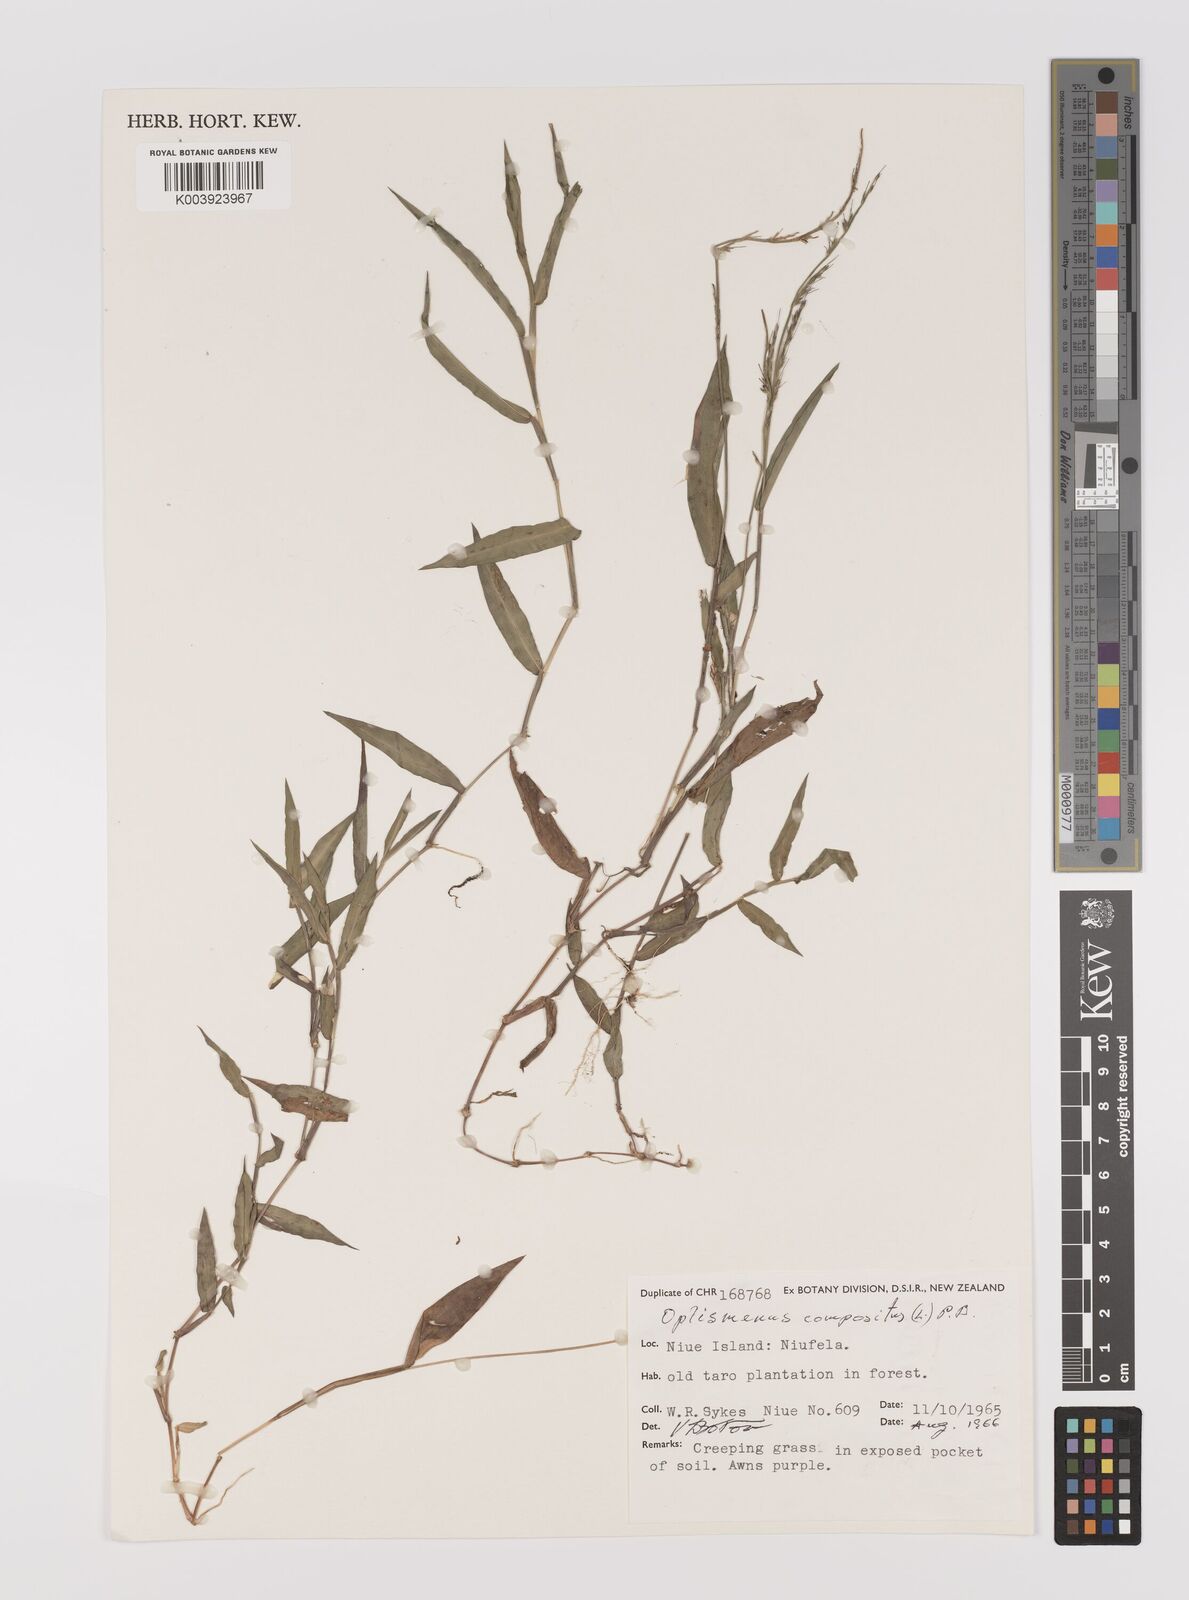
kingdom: Plantae
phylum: Tracheophyta
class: Liliopsida
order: Poales
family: Poaceae
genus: Oplismenus
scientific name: Oplismenus compositus
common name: Running mountain grass
